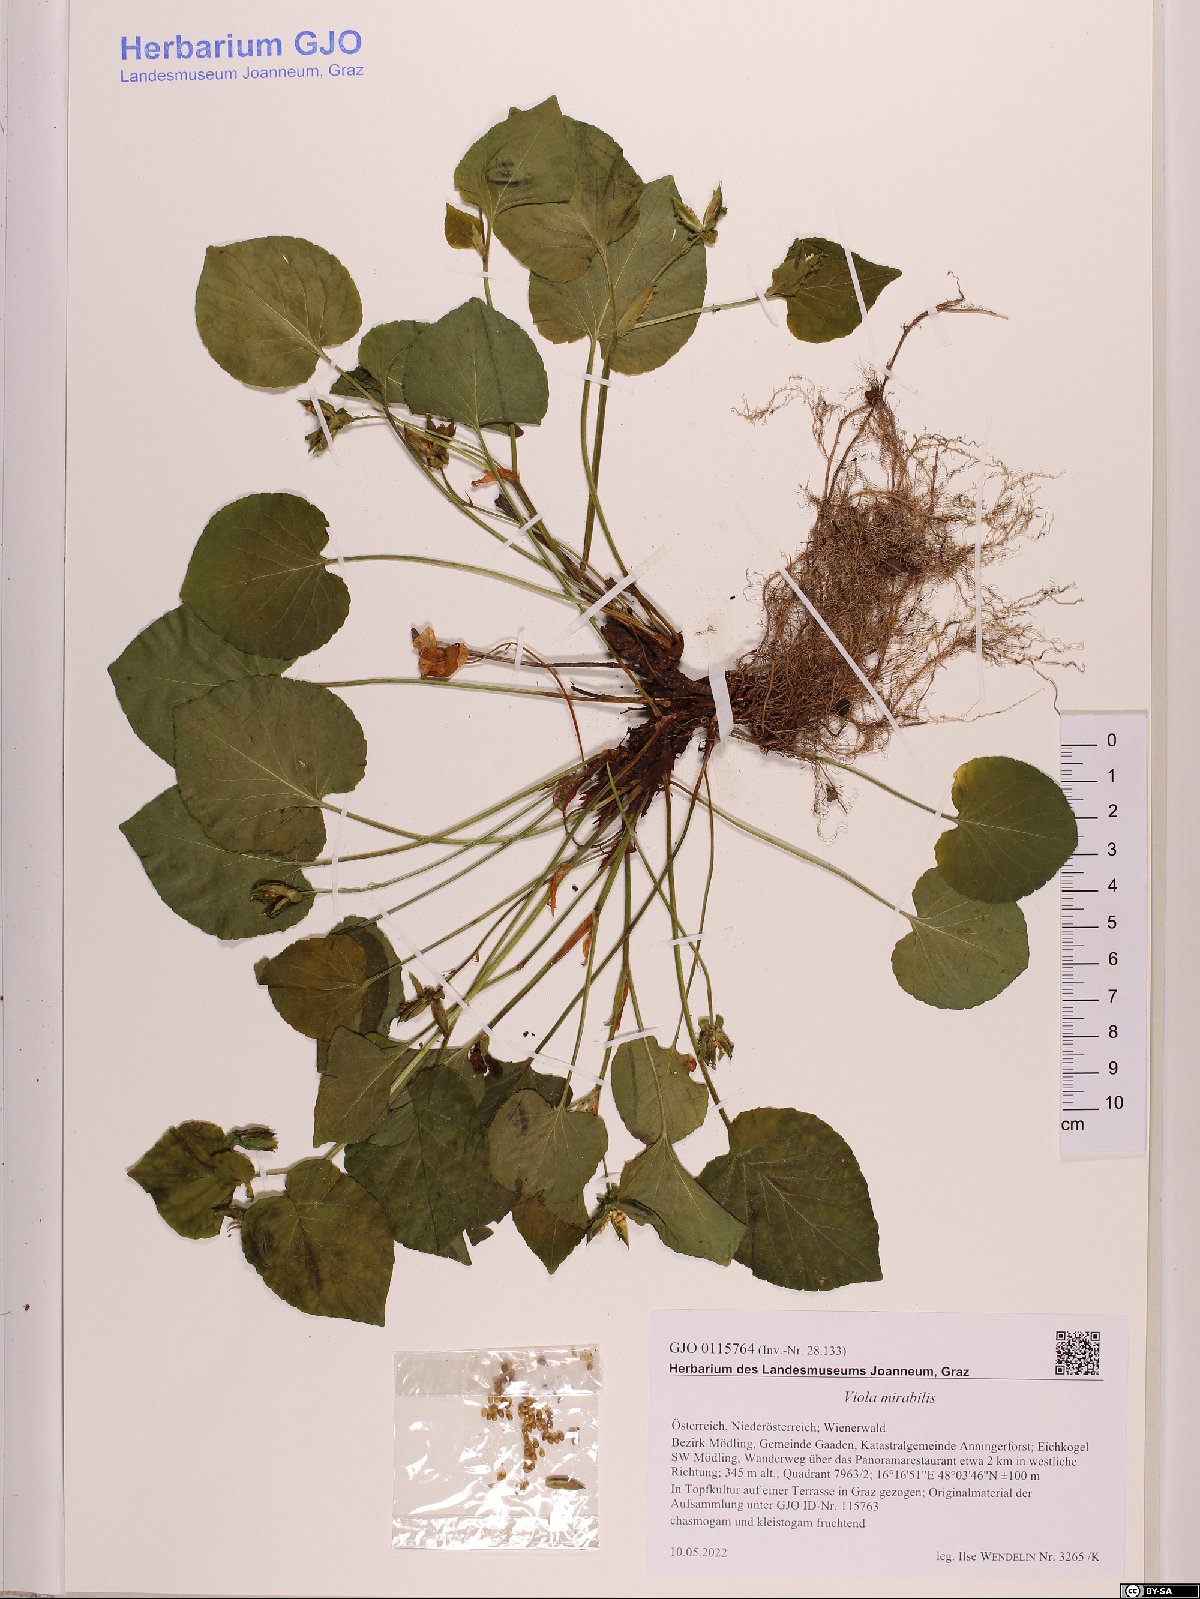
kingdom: Plantae
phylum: Tracheophyta
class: Magnoliopsida
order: Malpighiales
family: Violaceae
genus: Viola
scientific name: Viola mirabilis
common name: Wonder violet
